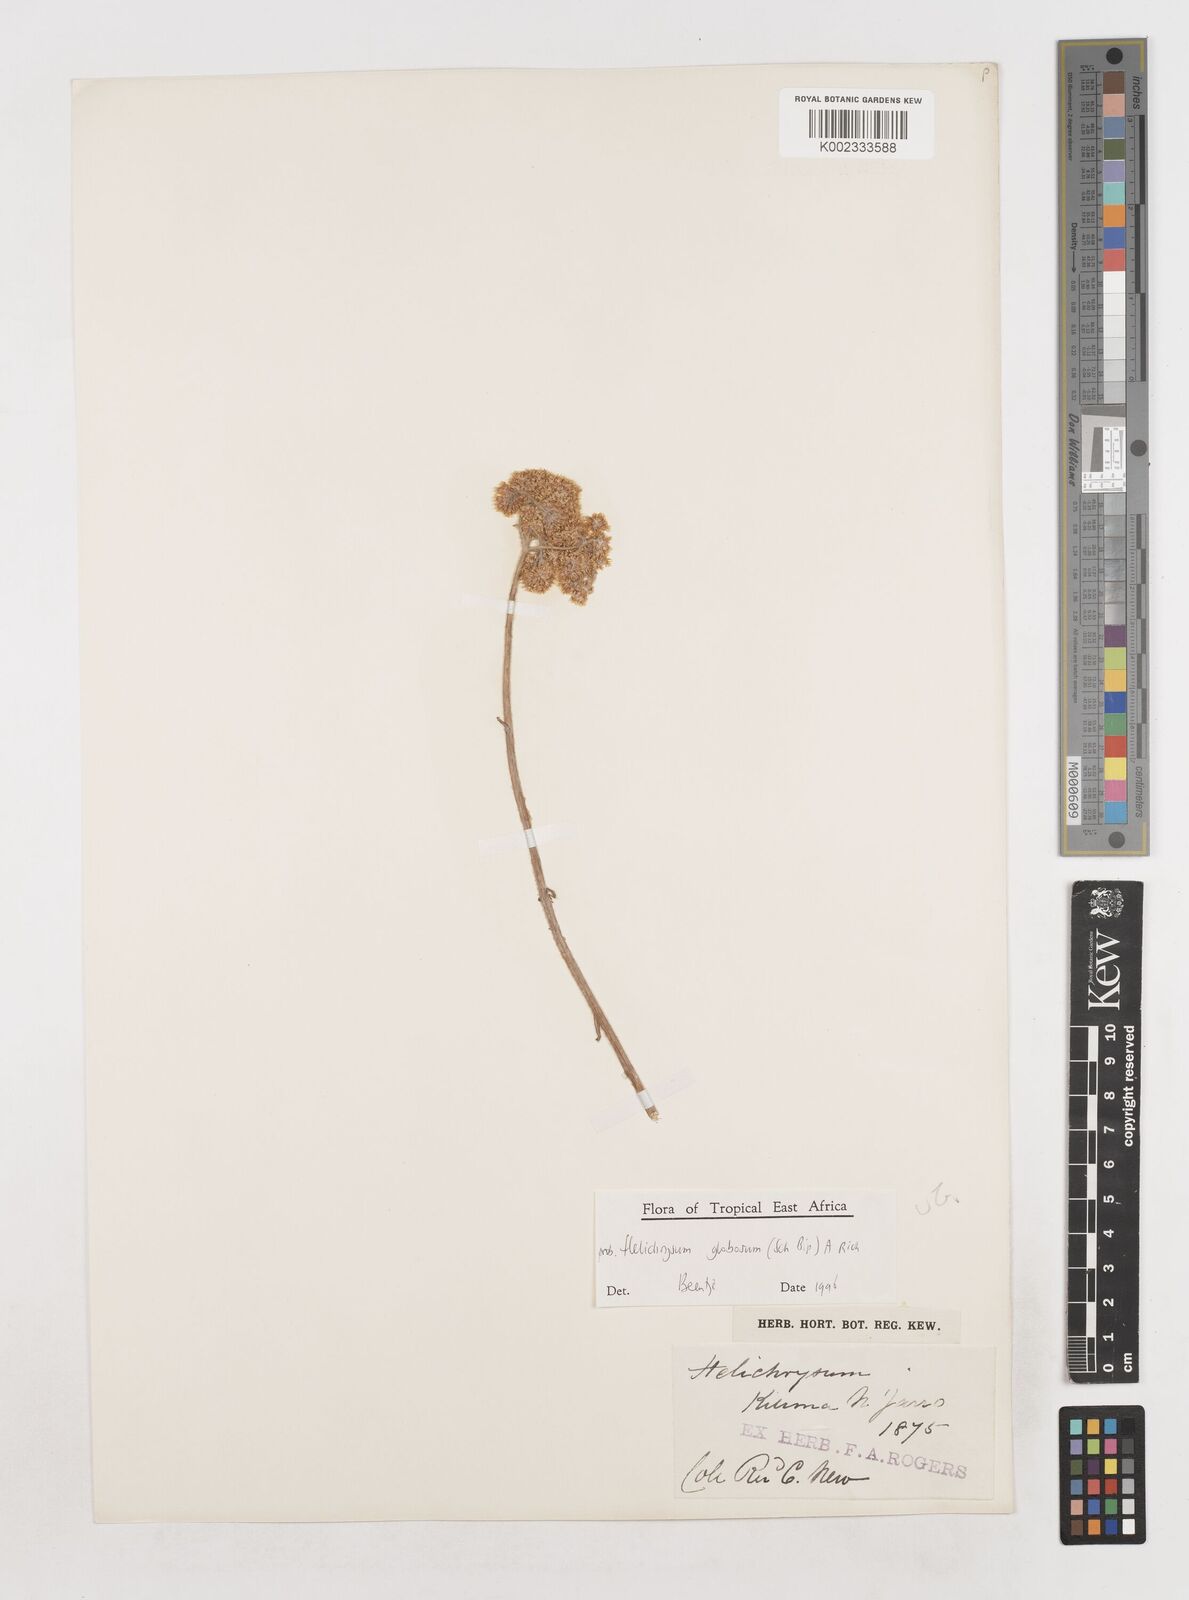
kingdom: Plantae
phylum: Tracheophyta
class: Magnoliopsida
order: Asterales
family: Asteraceae
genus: Helichrysum
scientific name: Helichrysum globosum
